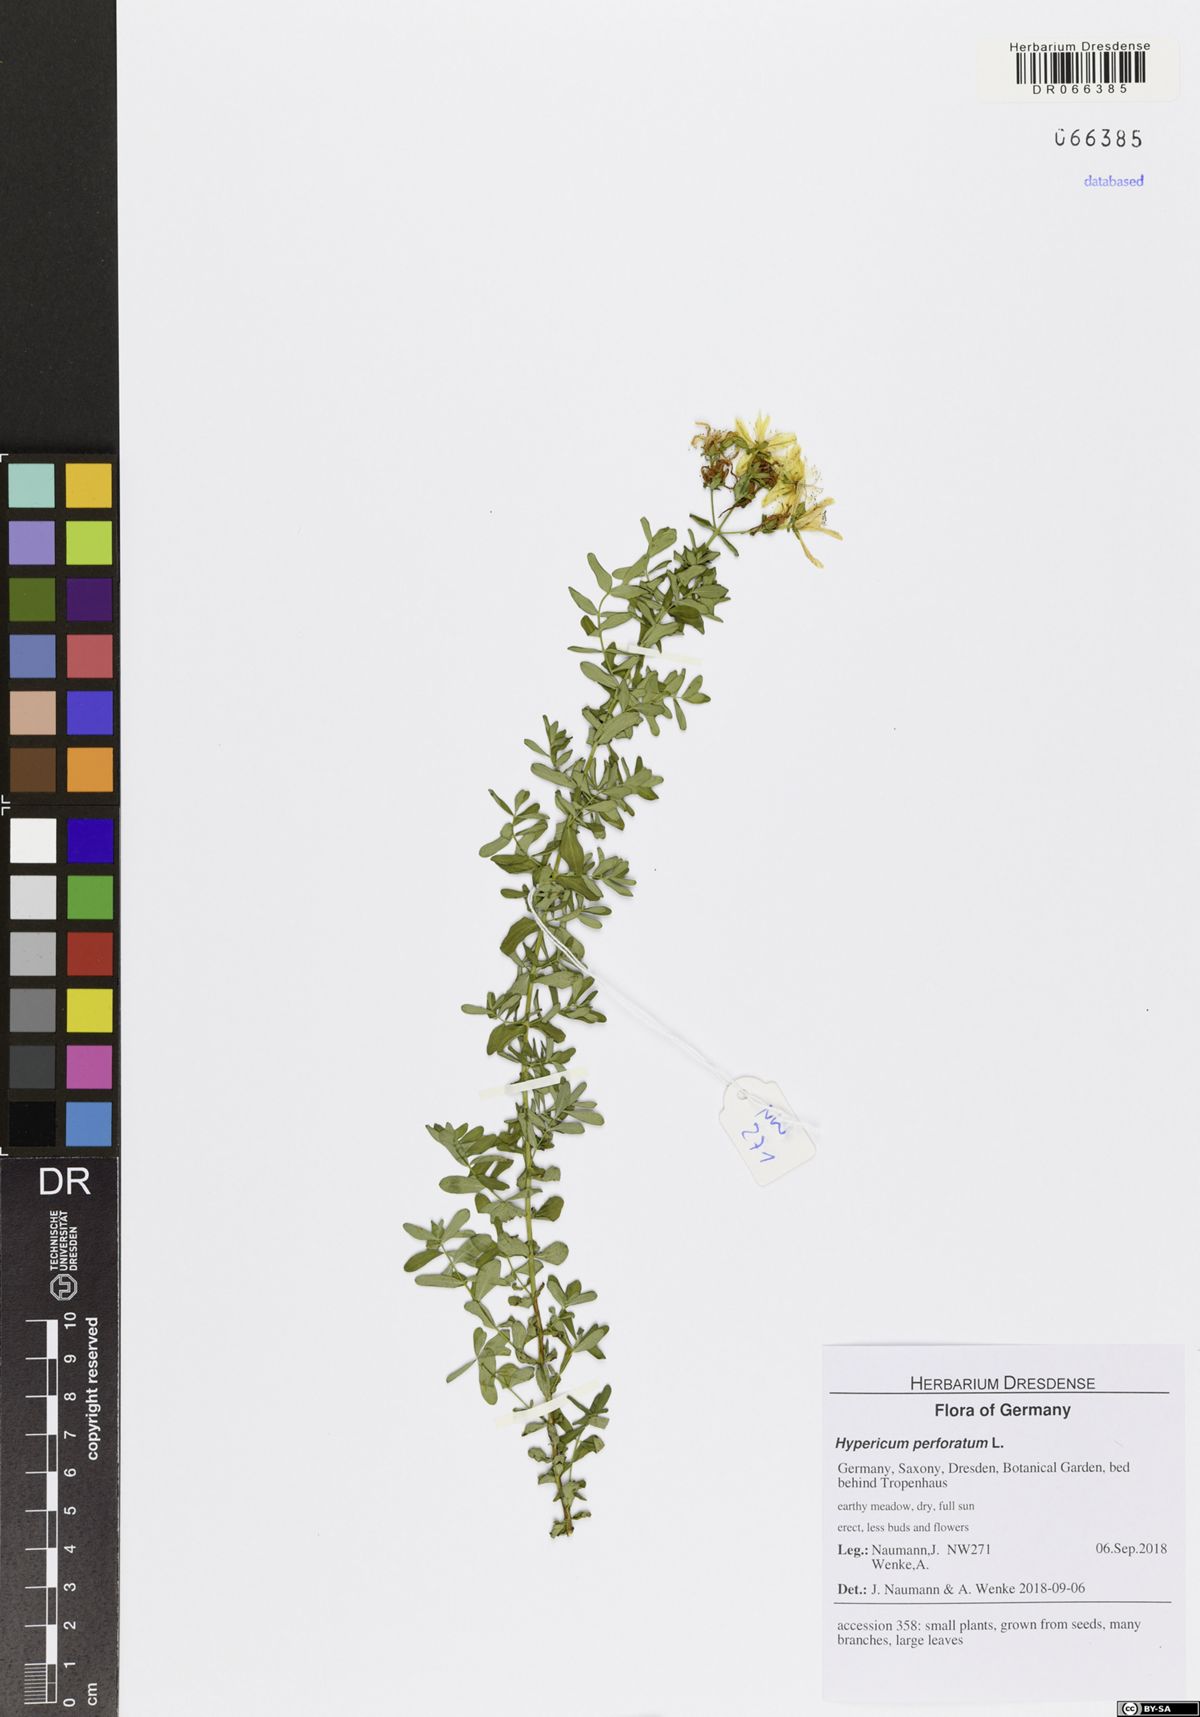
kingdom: Plantae
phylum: Tracheophyta
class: Magnoliopsida
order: Malpighiales
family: Hypericaceae
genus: Hypericum
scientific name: Hypericum perforatum
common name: Common st. johnswort
